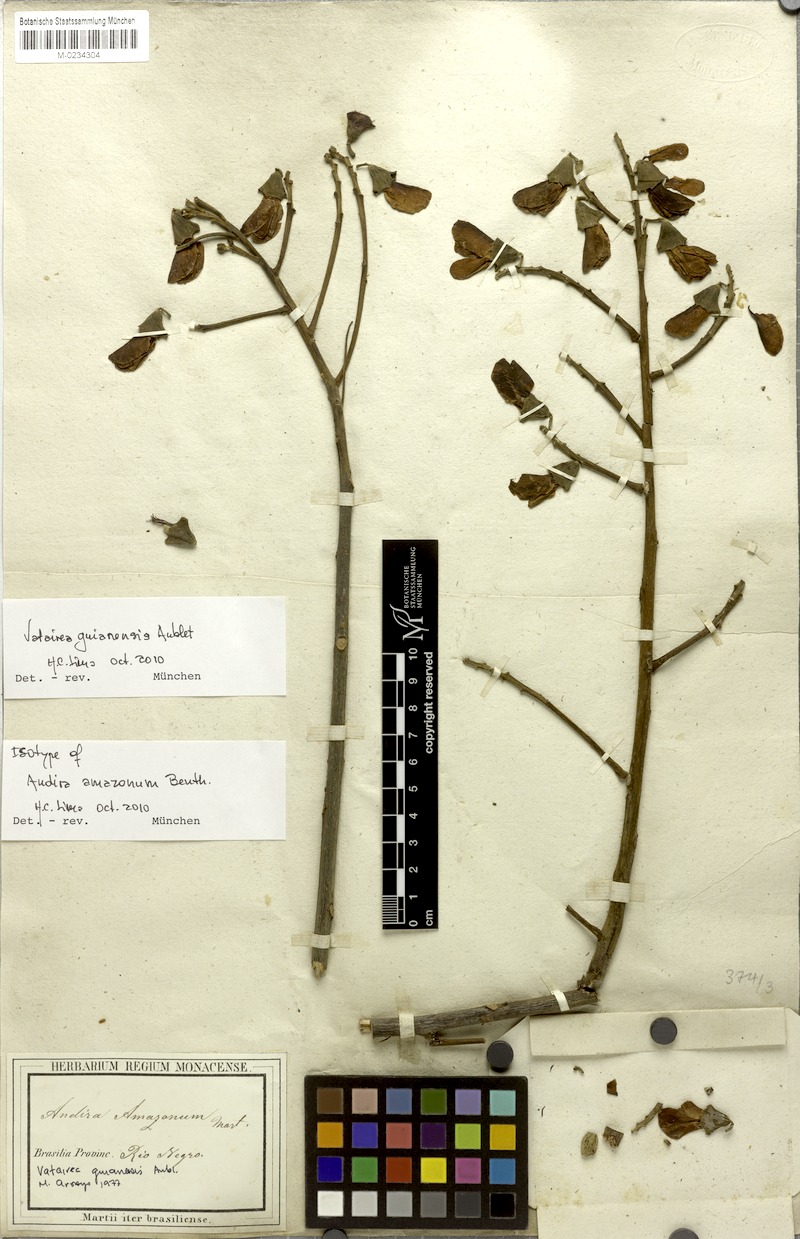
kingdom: Plantae
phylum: Tracheophyta
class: Magnoliopsida
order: Fabales
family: Fabaceae
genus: Vatairea
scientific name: Vatairea guianensis
